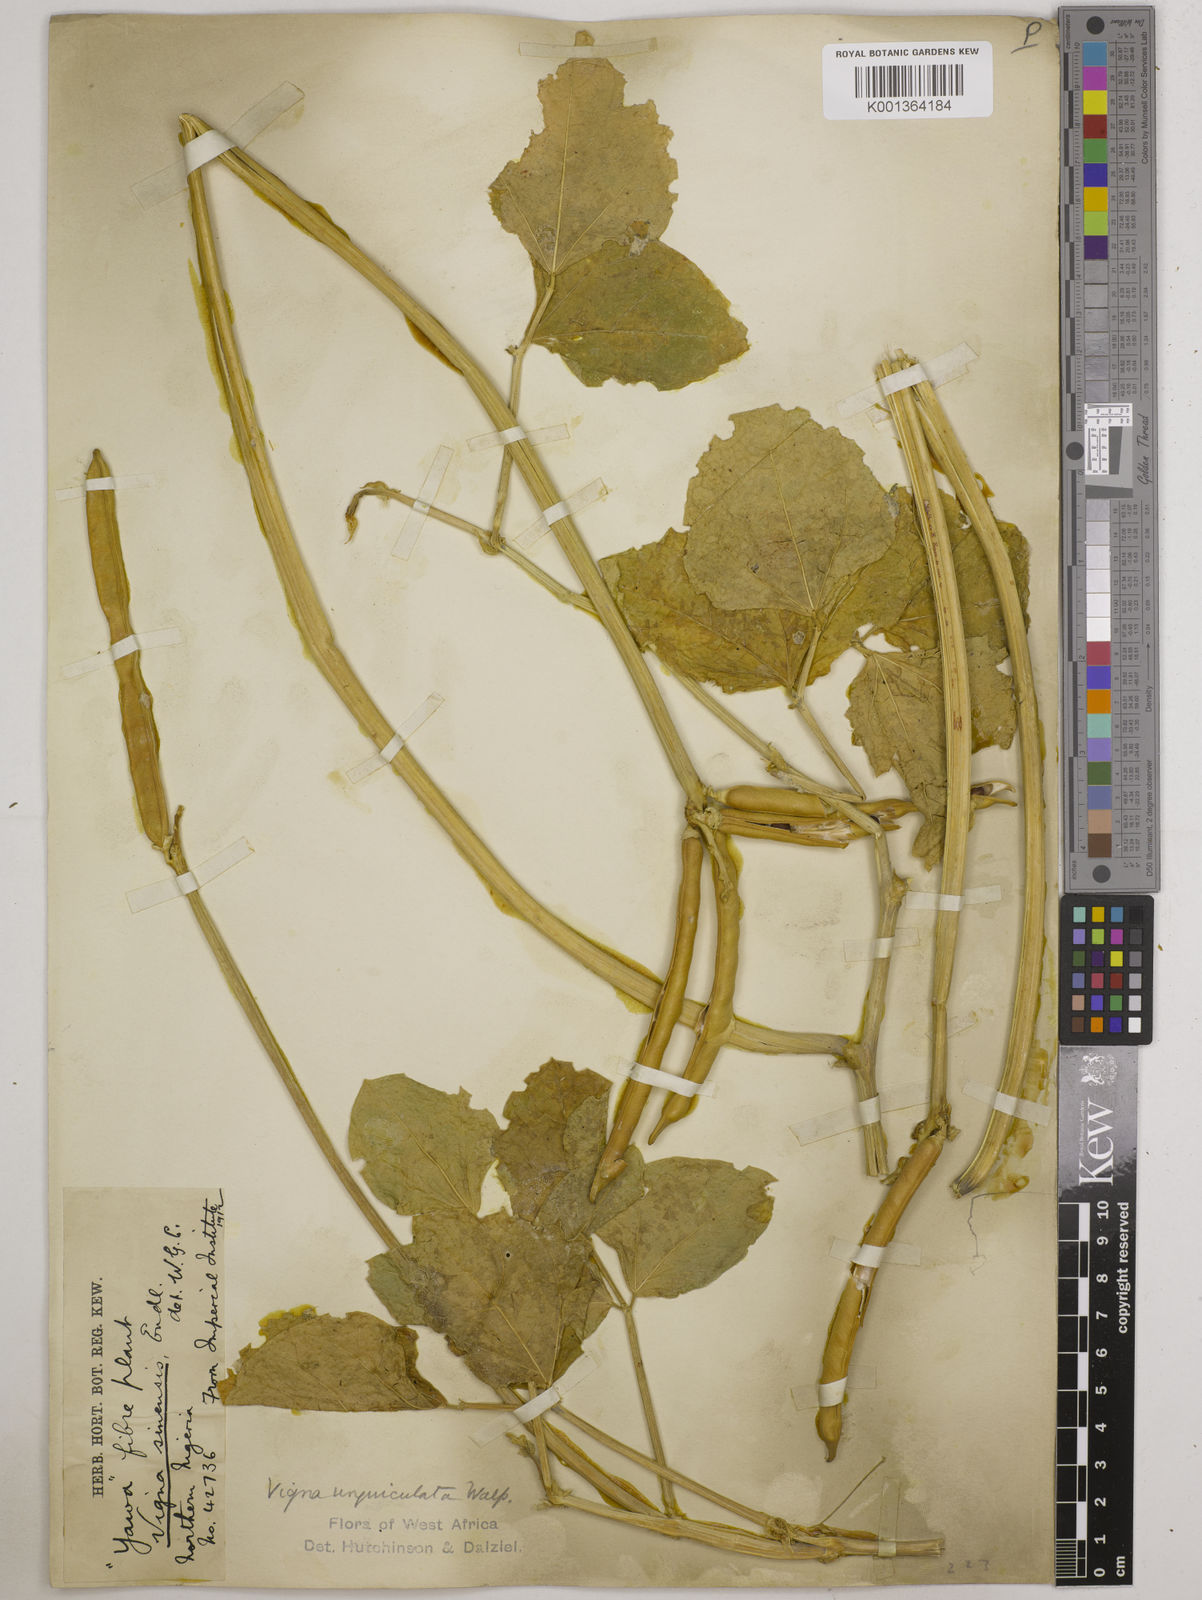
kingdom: Plantae
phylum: Tracheophyta
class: Magnoliopsida
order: Fabales
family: Fabaceae
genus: Vigna
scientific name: Vigna
